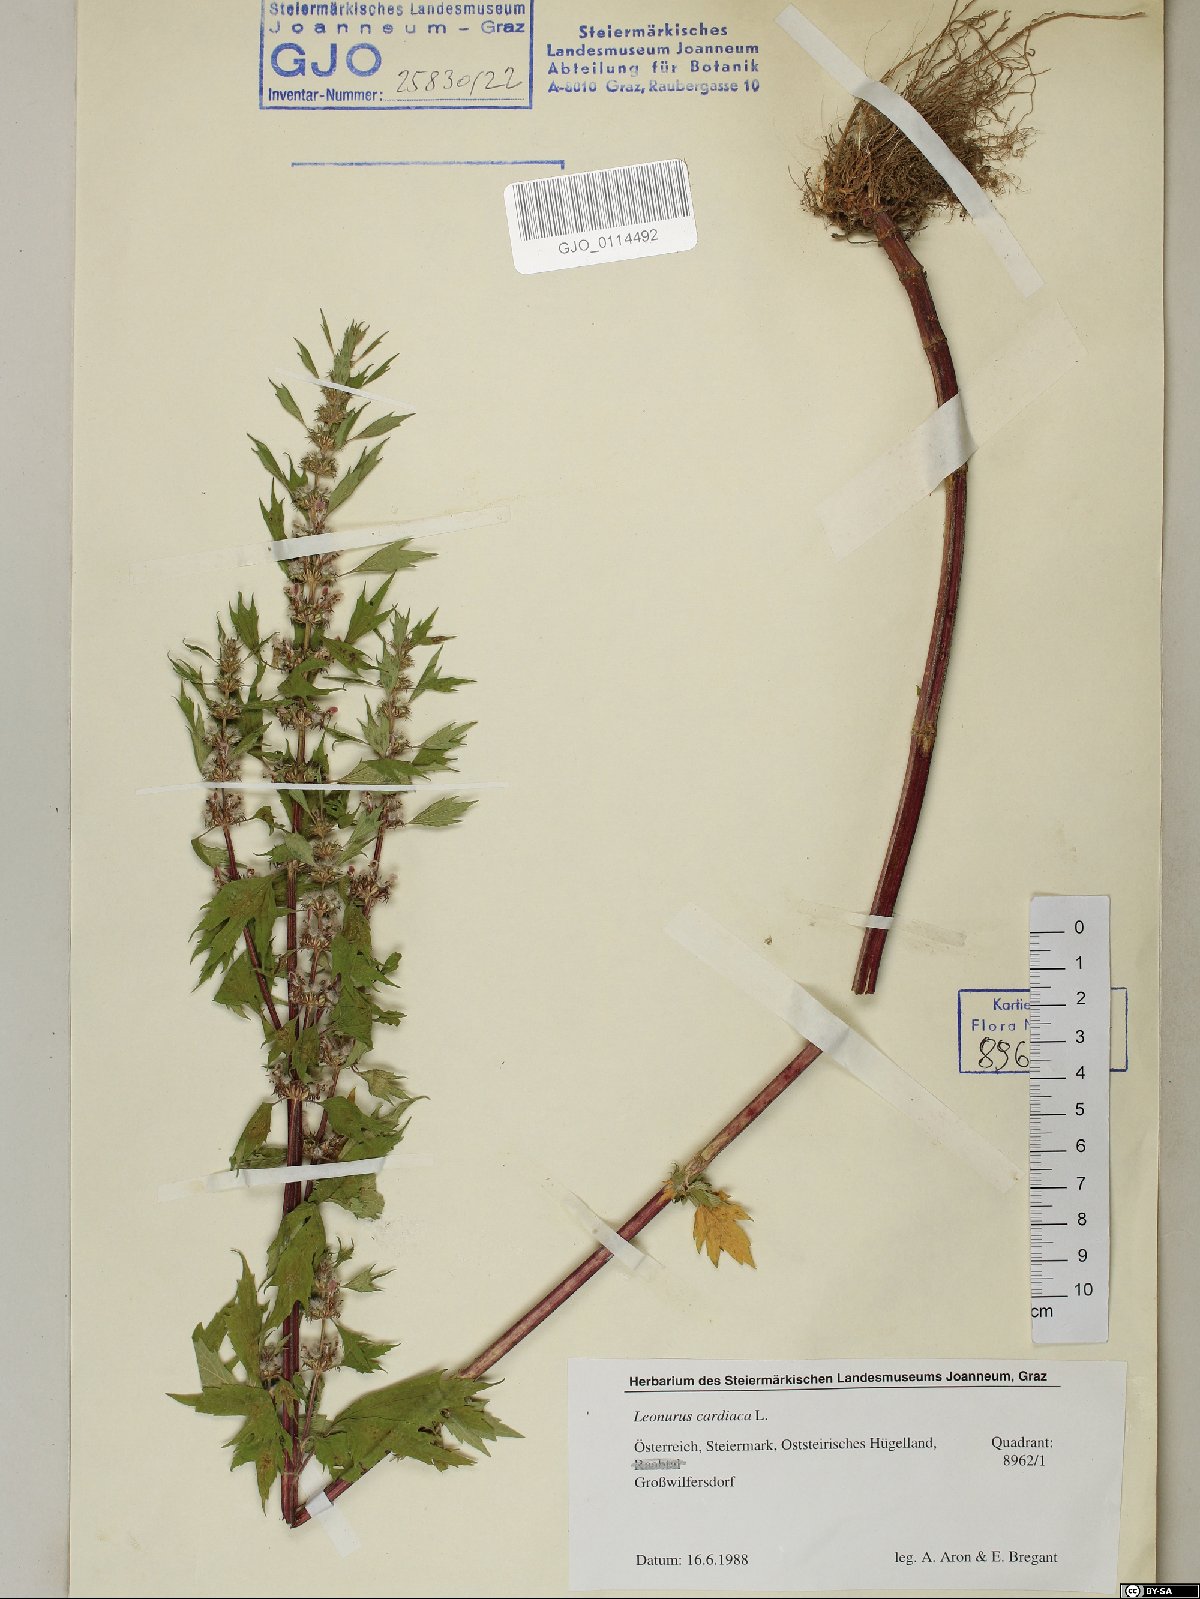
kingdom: Plantae
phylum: Tracheophyta
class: Magnoliopsida
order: Lamiales
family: Lamiaceae
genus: Leonurus
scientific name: Leonurus cardiaca
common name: Motherwort
